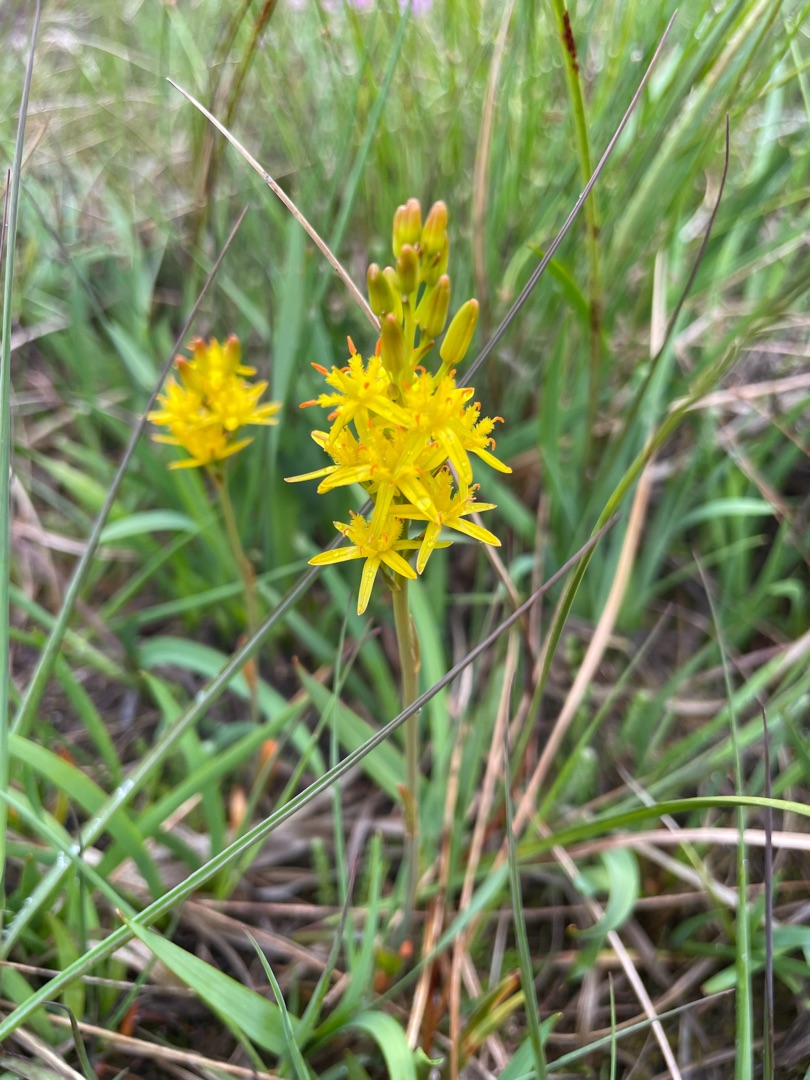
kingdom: Plantae
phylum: Tracheophyta
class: Liliopsida
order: Dioscoreales
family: Nartheciaceae
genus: Narthecium
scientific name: Narthecium ossifragum
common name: Benbræk
